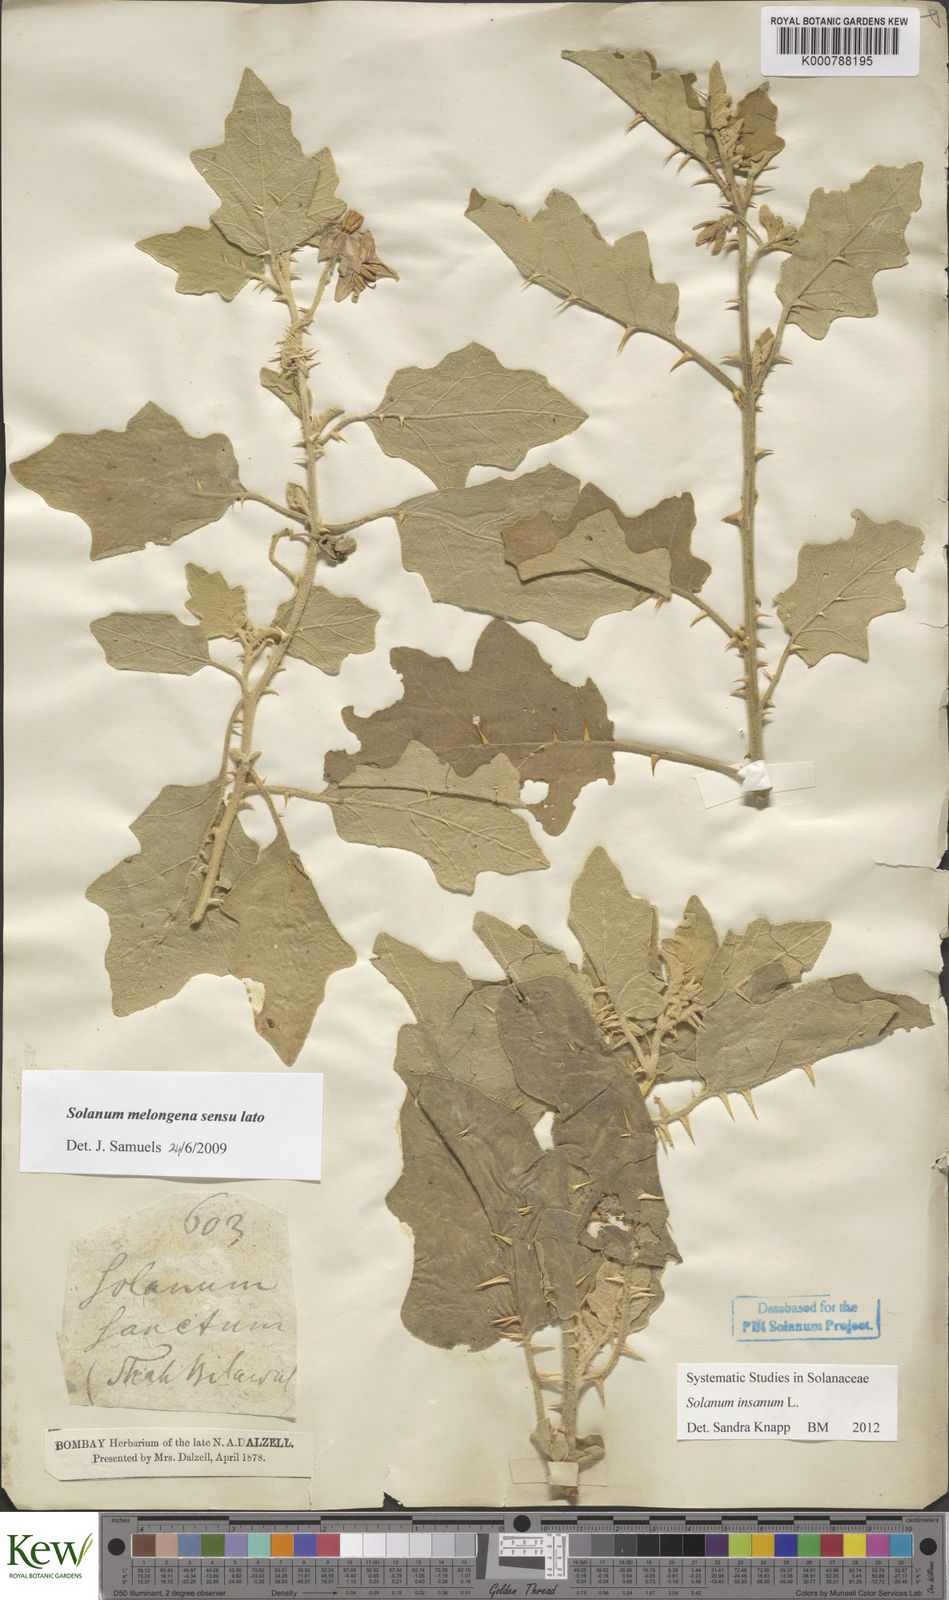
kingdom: Plantae
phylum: Tracheophyta
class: Magnoliopsida
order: Solanales
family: Solanaceae
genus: Solanum
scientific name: Solanum insanum
